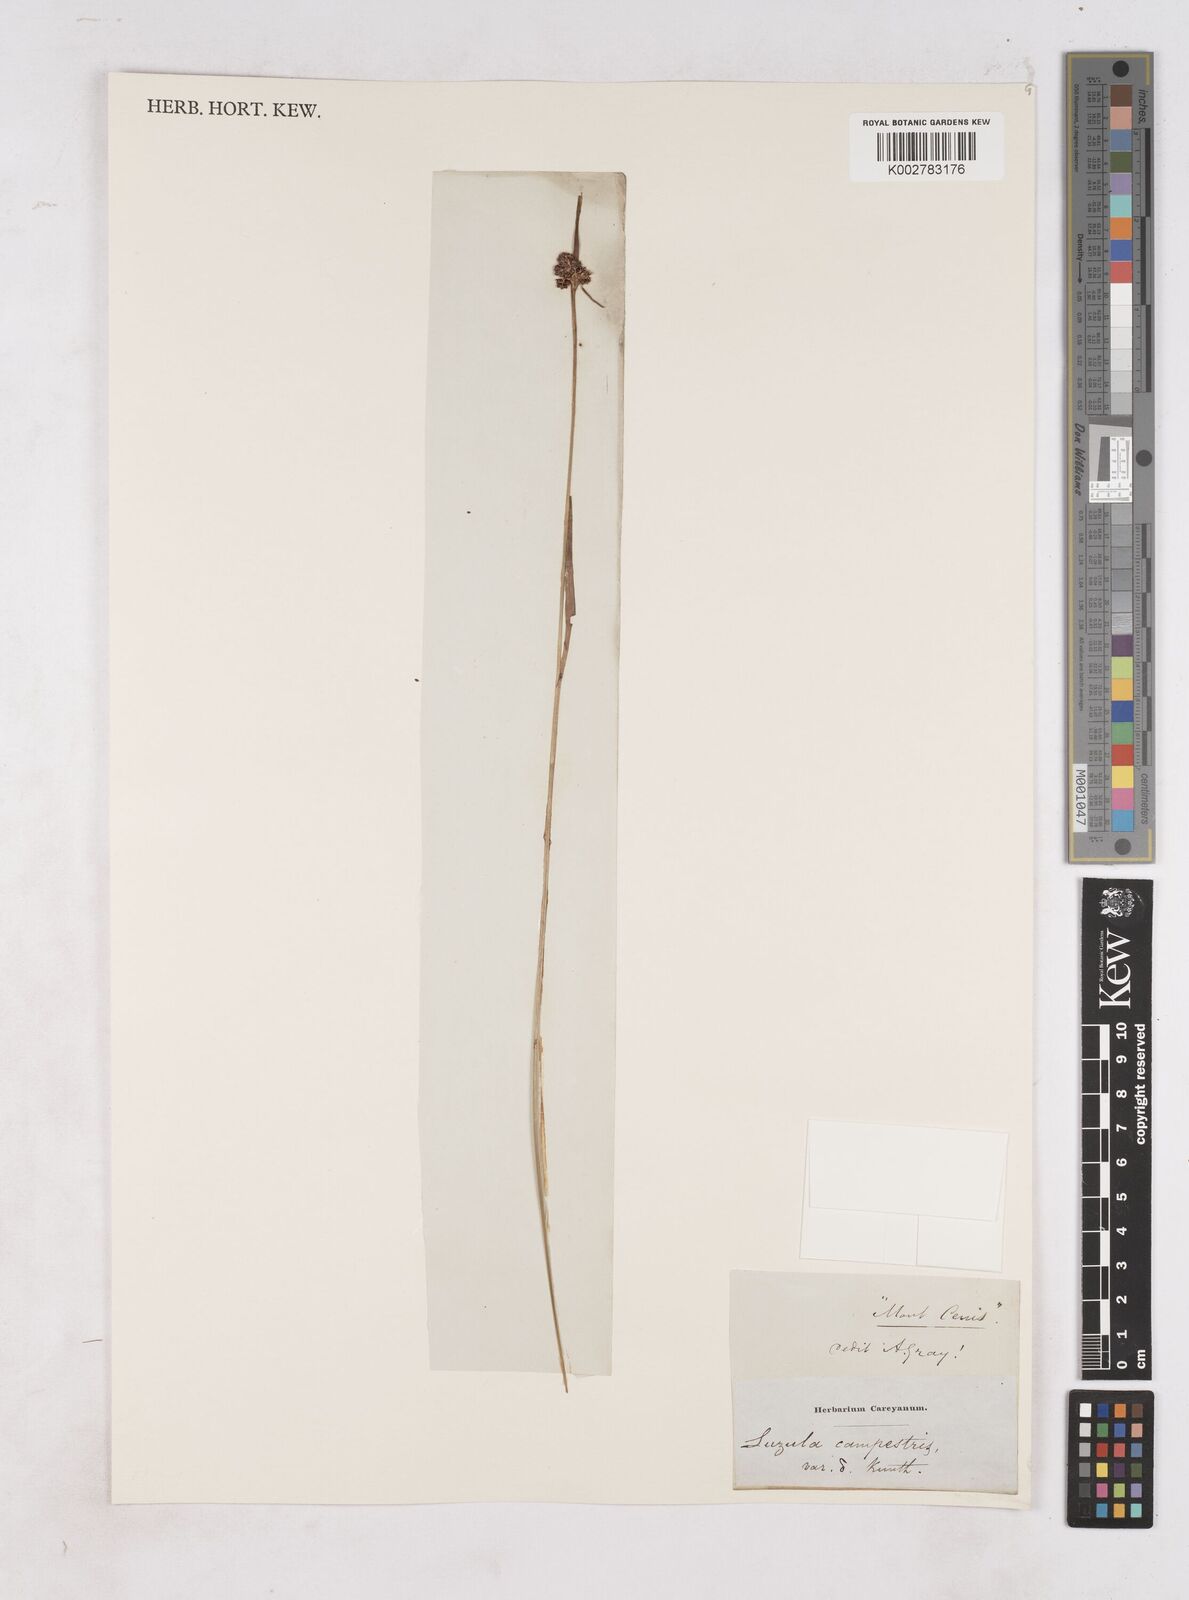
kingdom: Plantae
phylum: Tracheophyta
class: Liliopsida
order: Poales
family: Juncaceae
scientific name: Juncaceae
